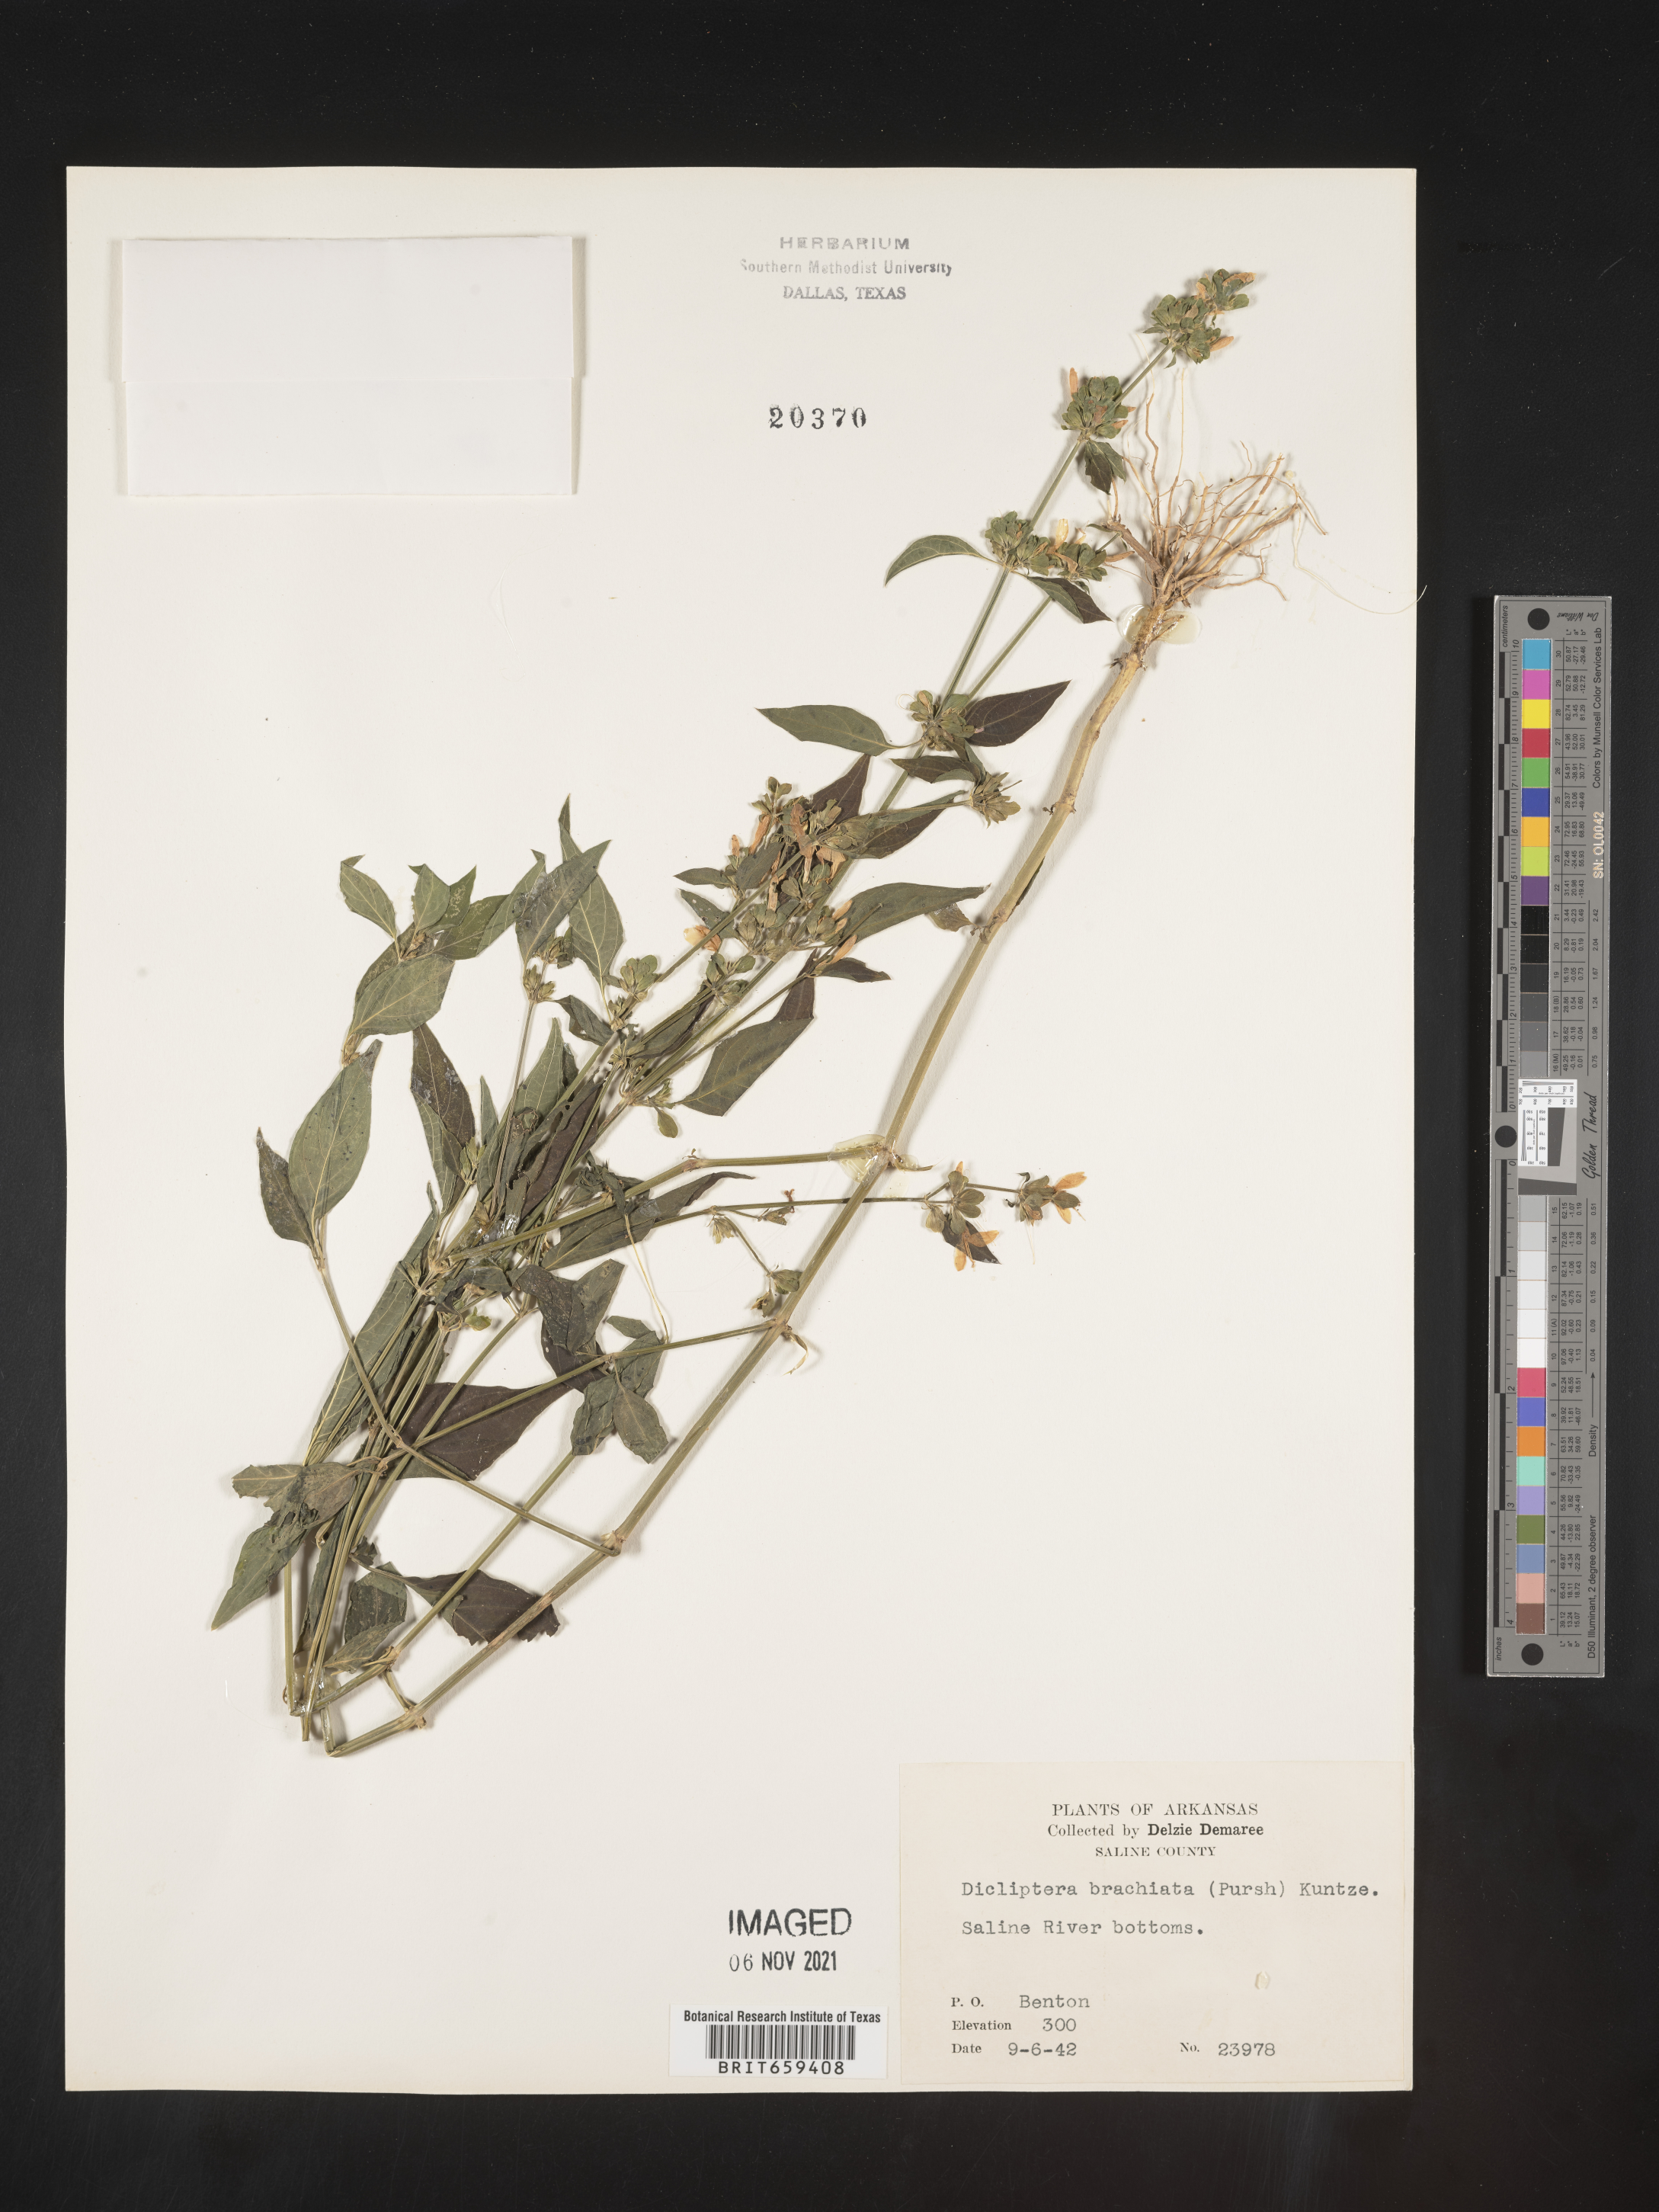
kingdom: Plantae
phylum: Tracheophyta
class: Magnoliopsida
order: Lamiales
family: Acanthaceae
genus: Dicliptera
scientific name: Dicliptera brachiata
